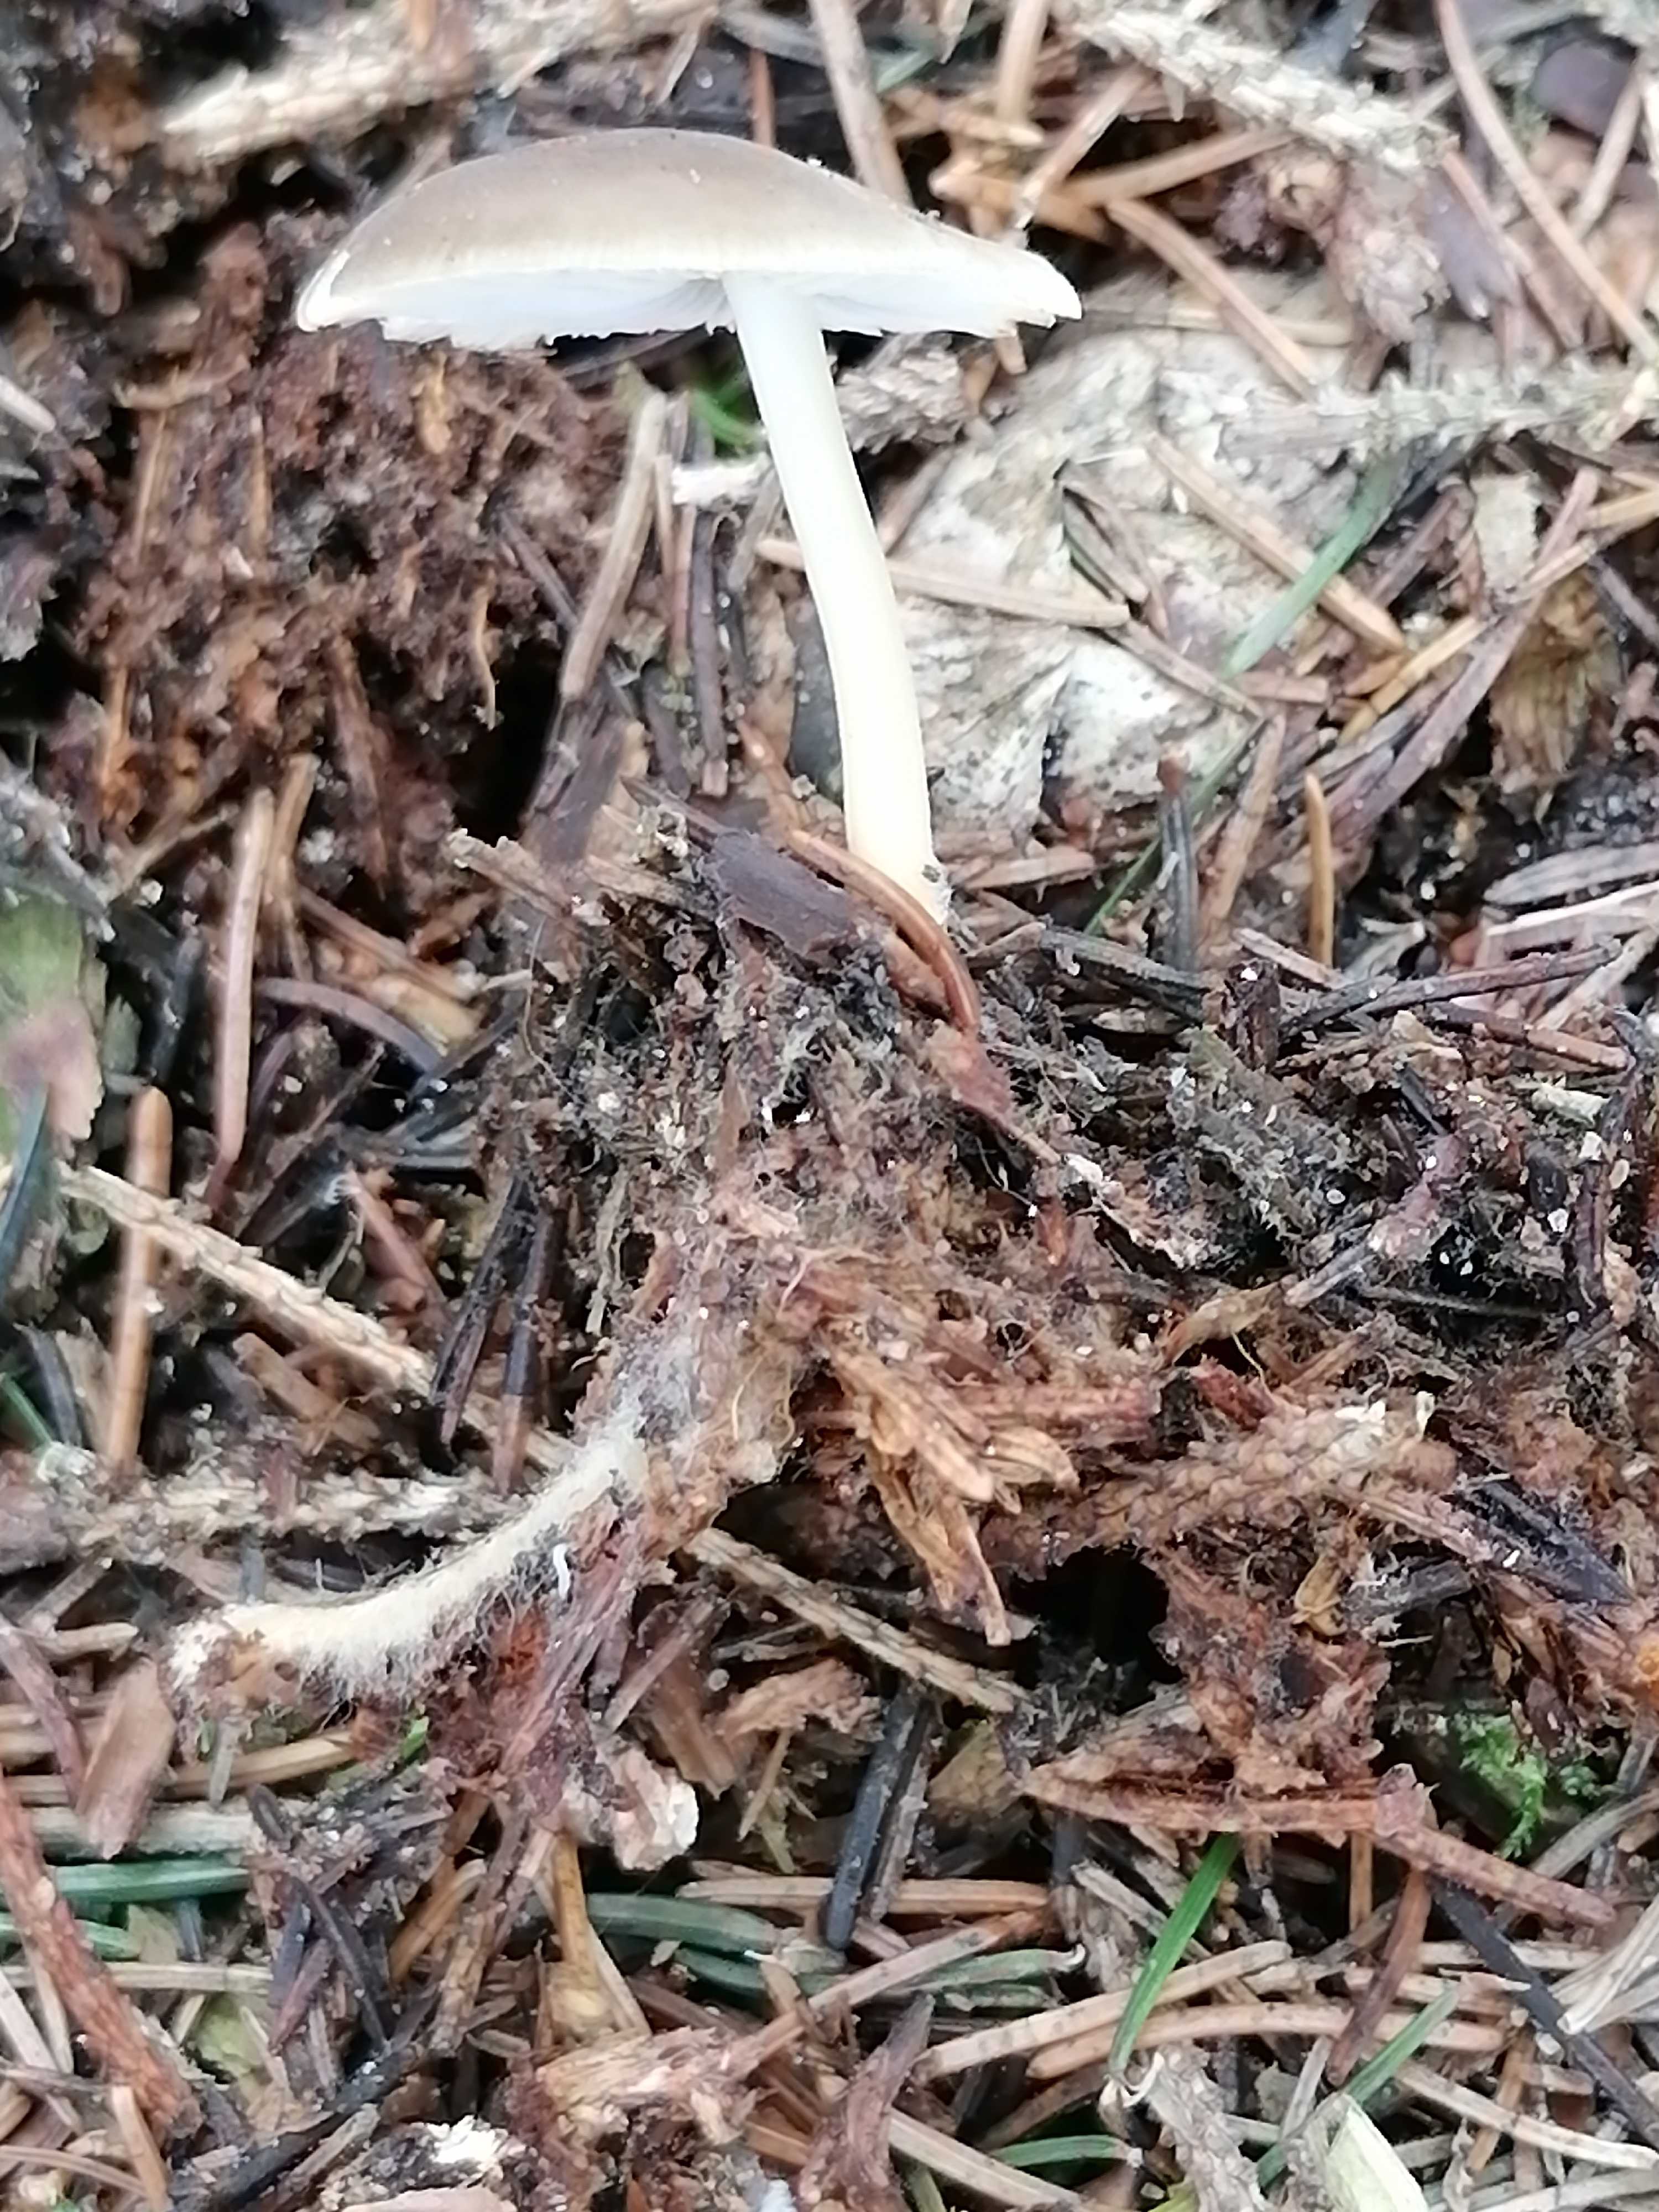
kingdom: Fungi
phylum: Basidiomycota
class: Agaricomycetes
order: Agaricales
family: Physalacriaceae
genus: Strobilurus
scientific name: Strobilurus esculentus
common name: gran-koglehat
